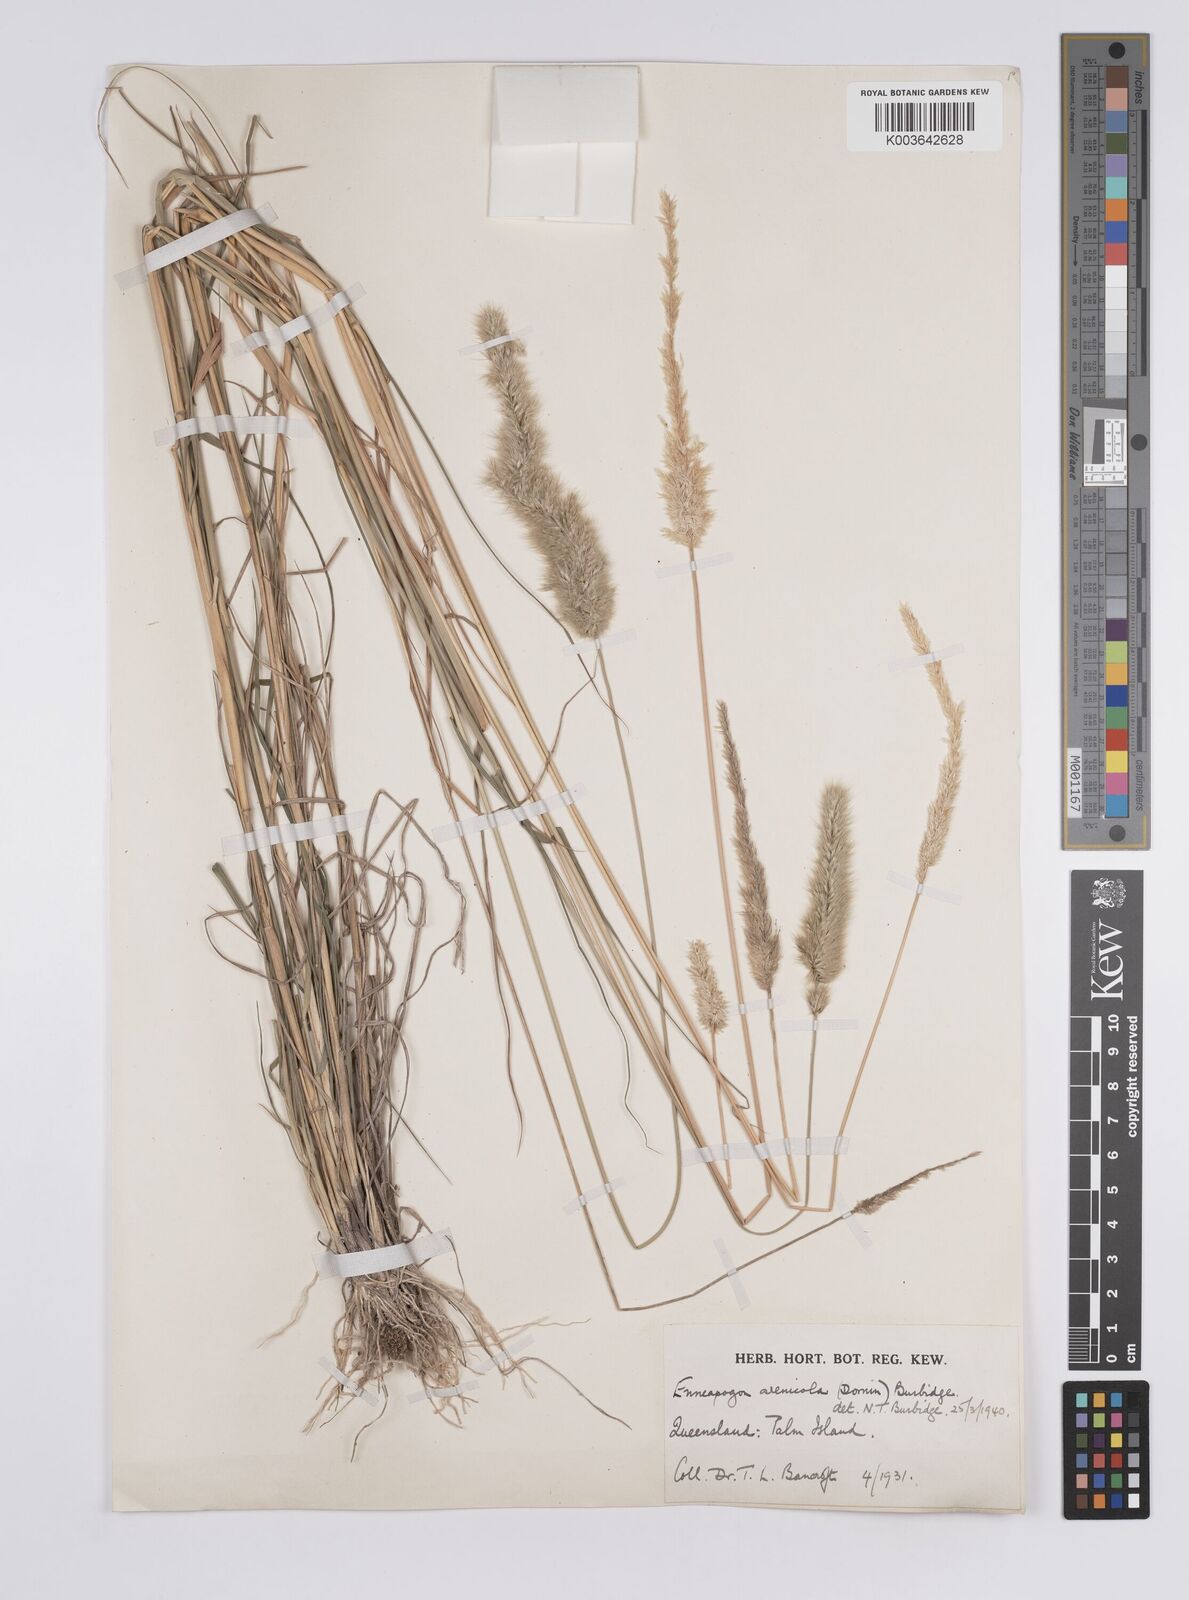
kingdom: Plantae
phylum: Tracheophyta
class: Liliopsida
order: Poales
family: Poaceae
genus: Enneapogon
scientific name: Enneapogon nigricans
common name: Pappus grass
